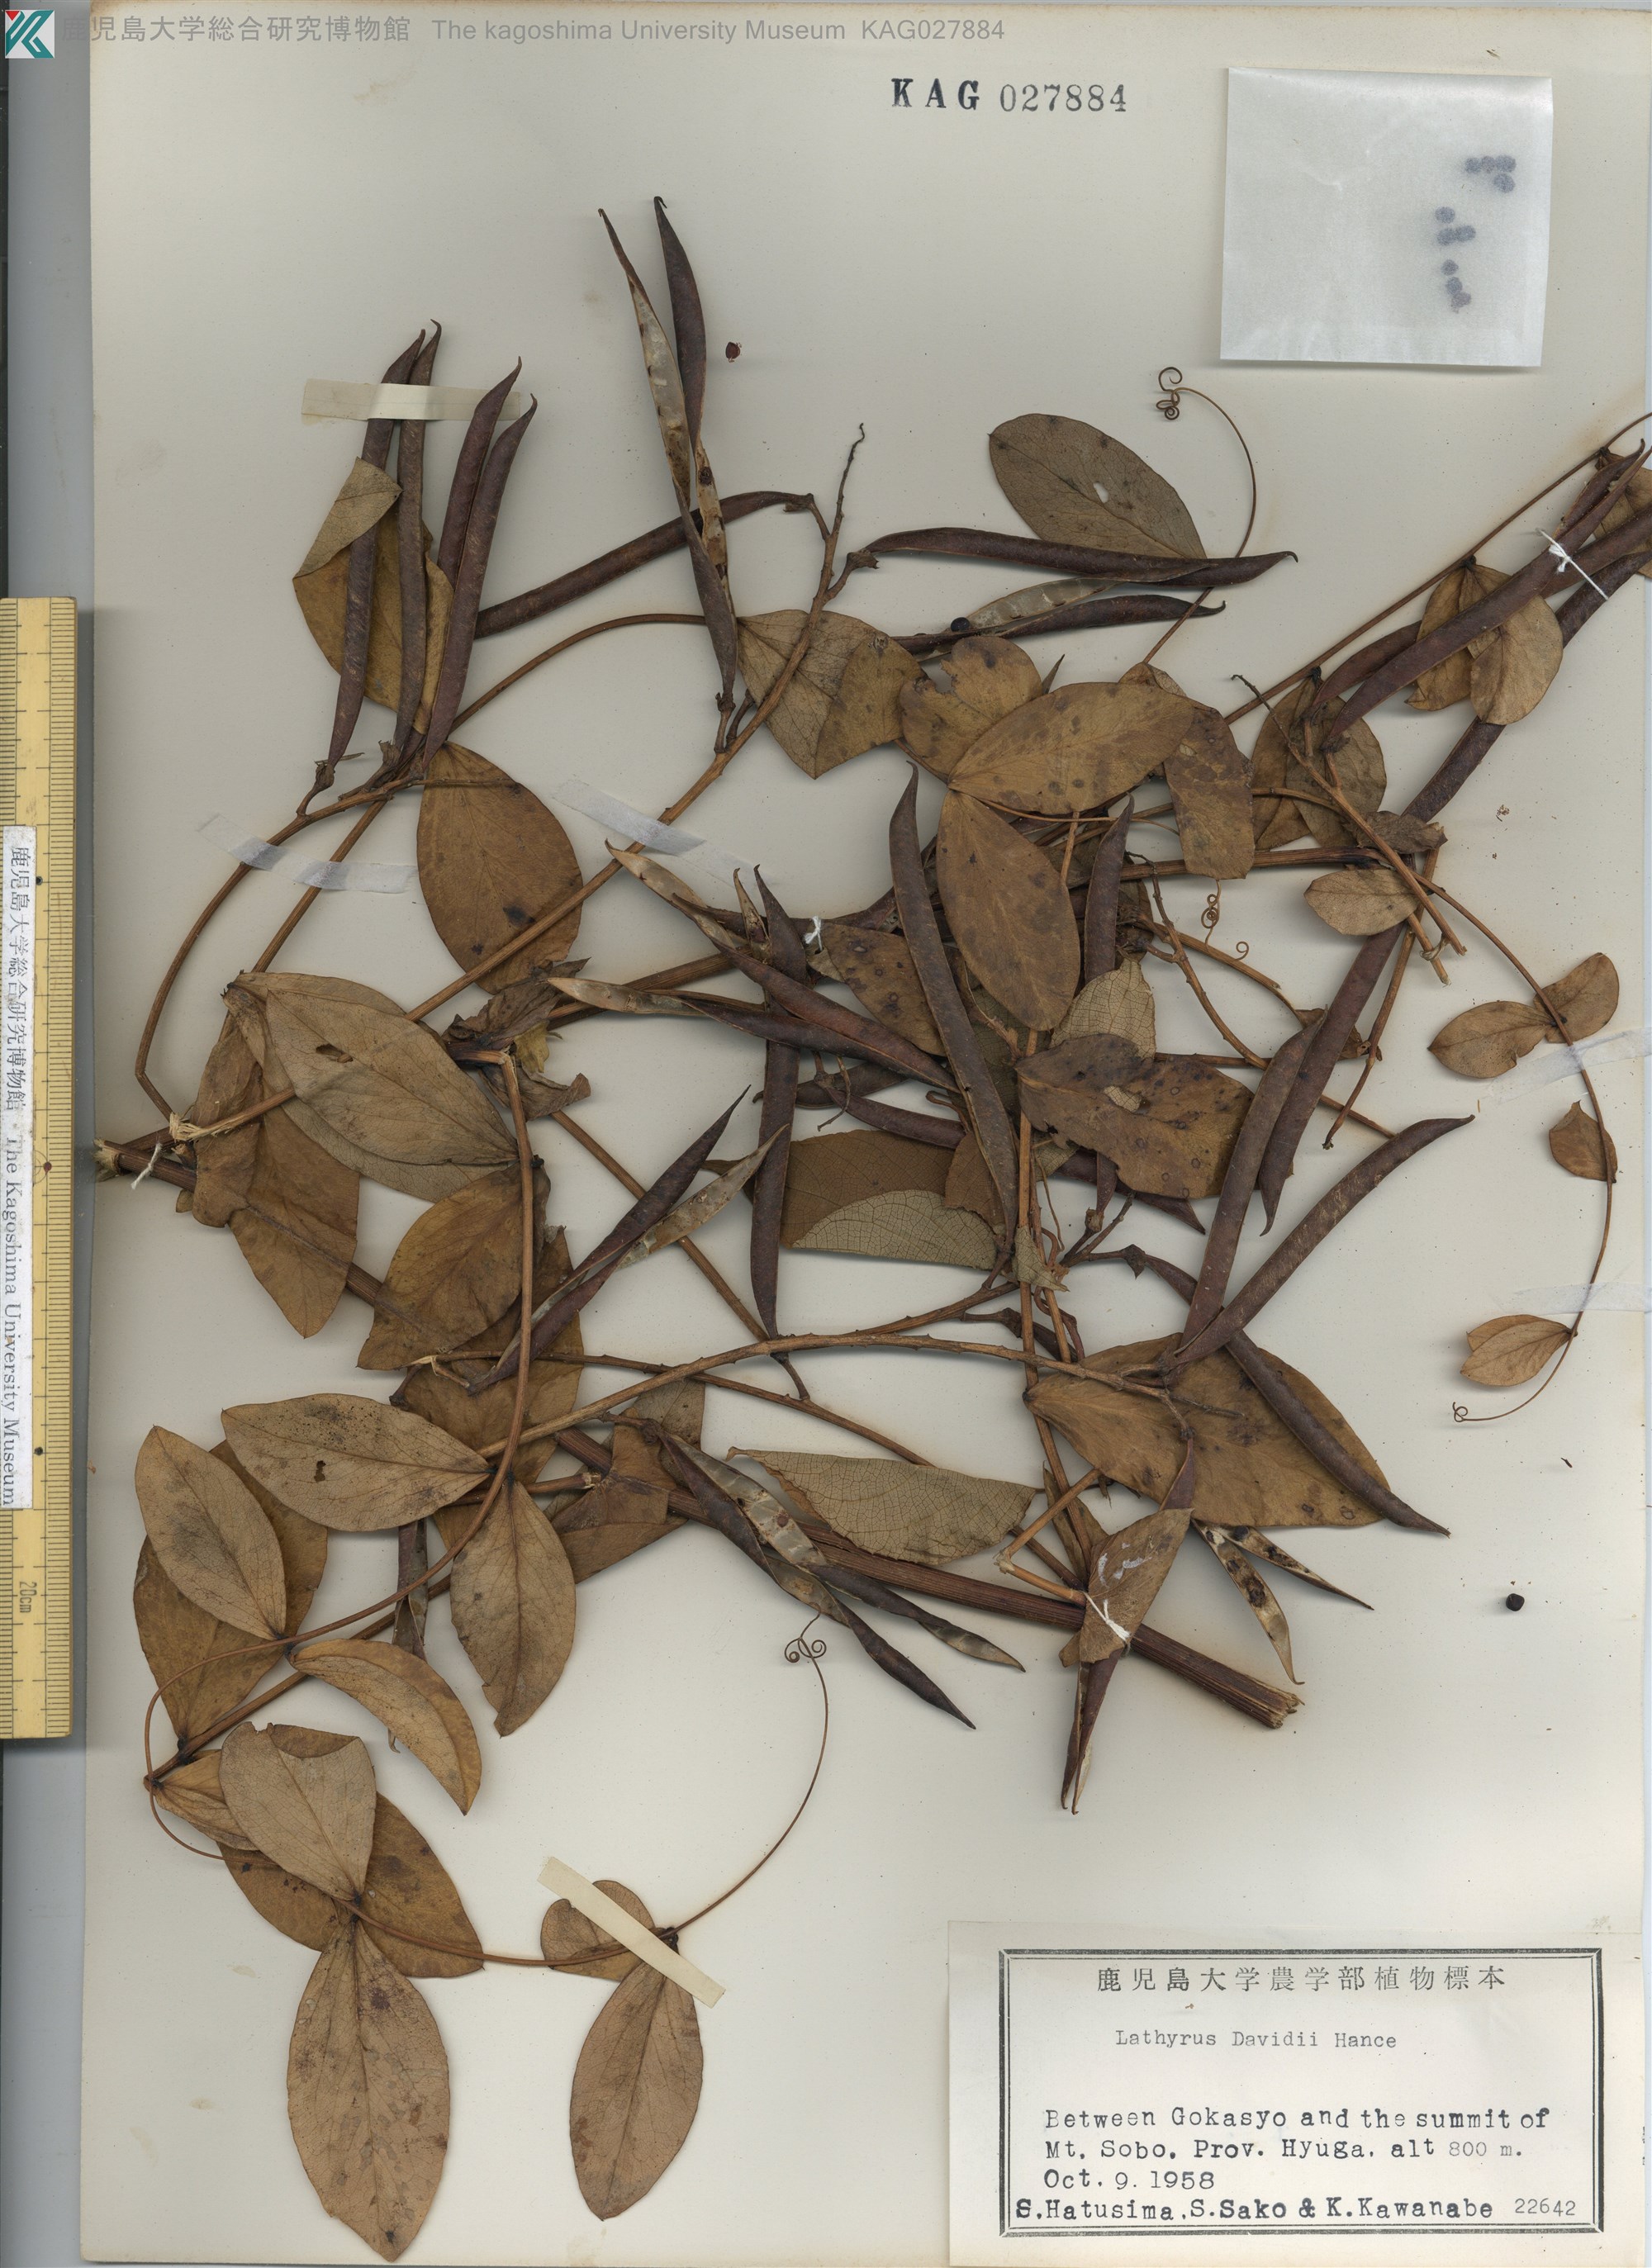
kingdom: Plantae
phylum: Tracheophyta
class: Magnoliopsida
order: Fabales
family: Fabaceae
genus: Lathyrus
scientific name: Lathyrus davidii
